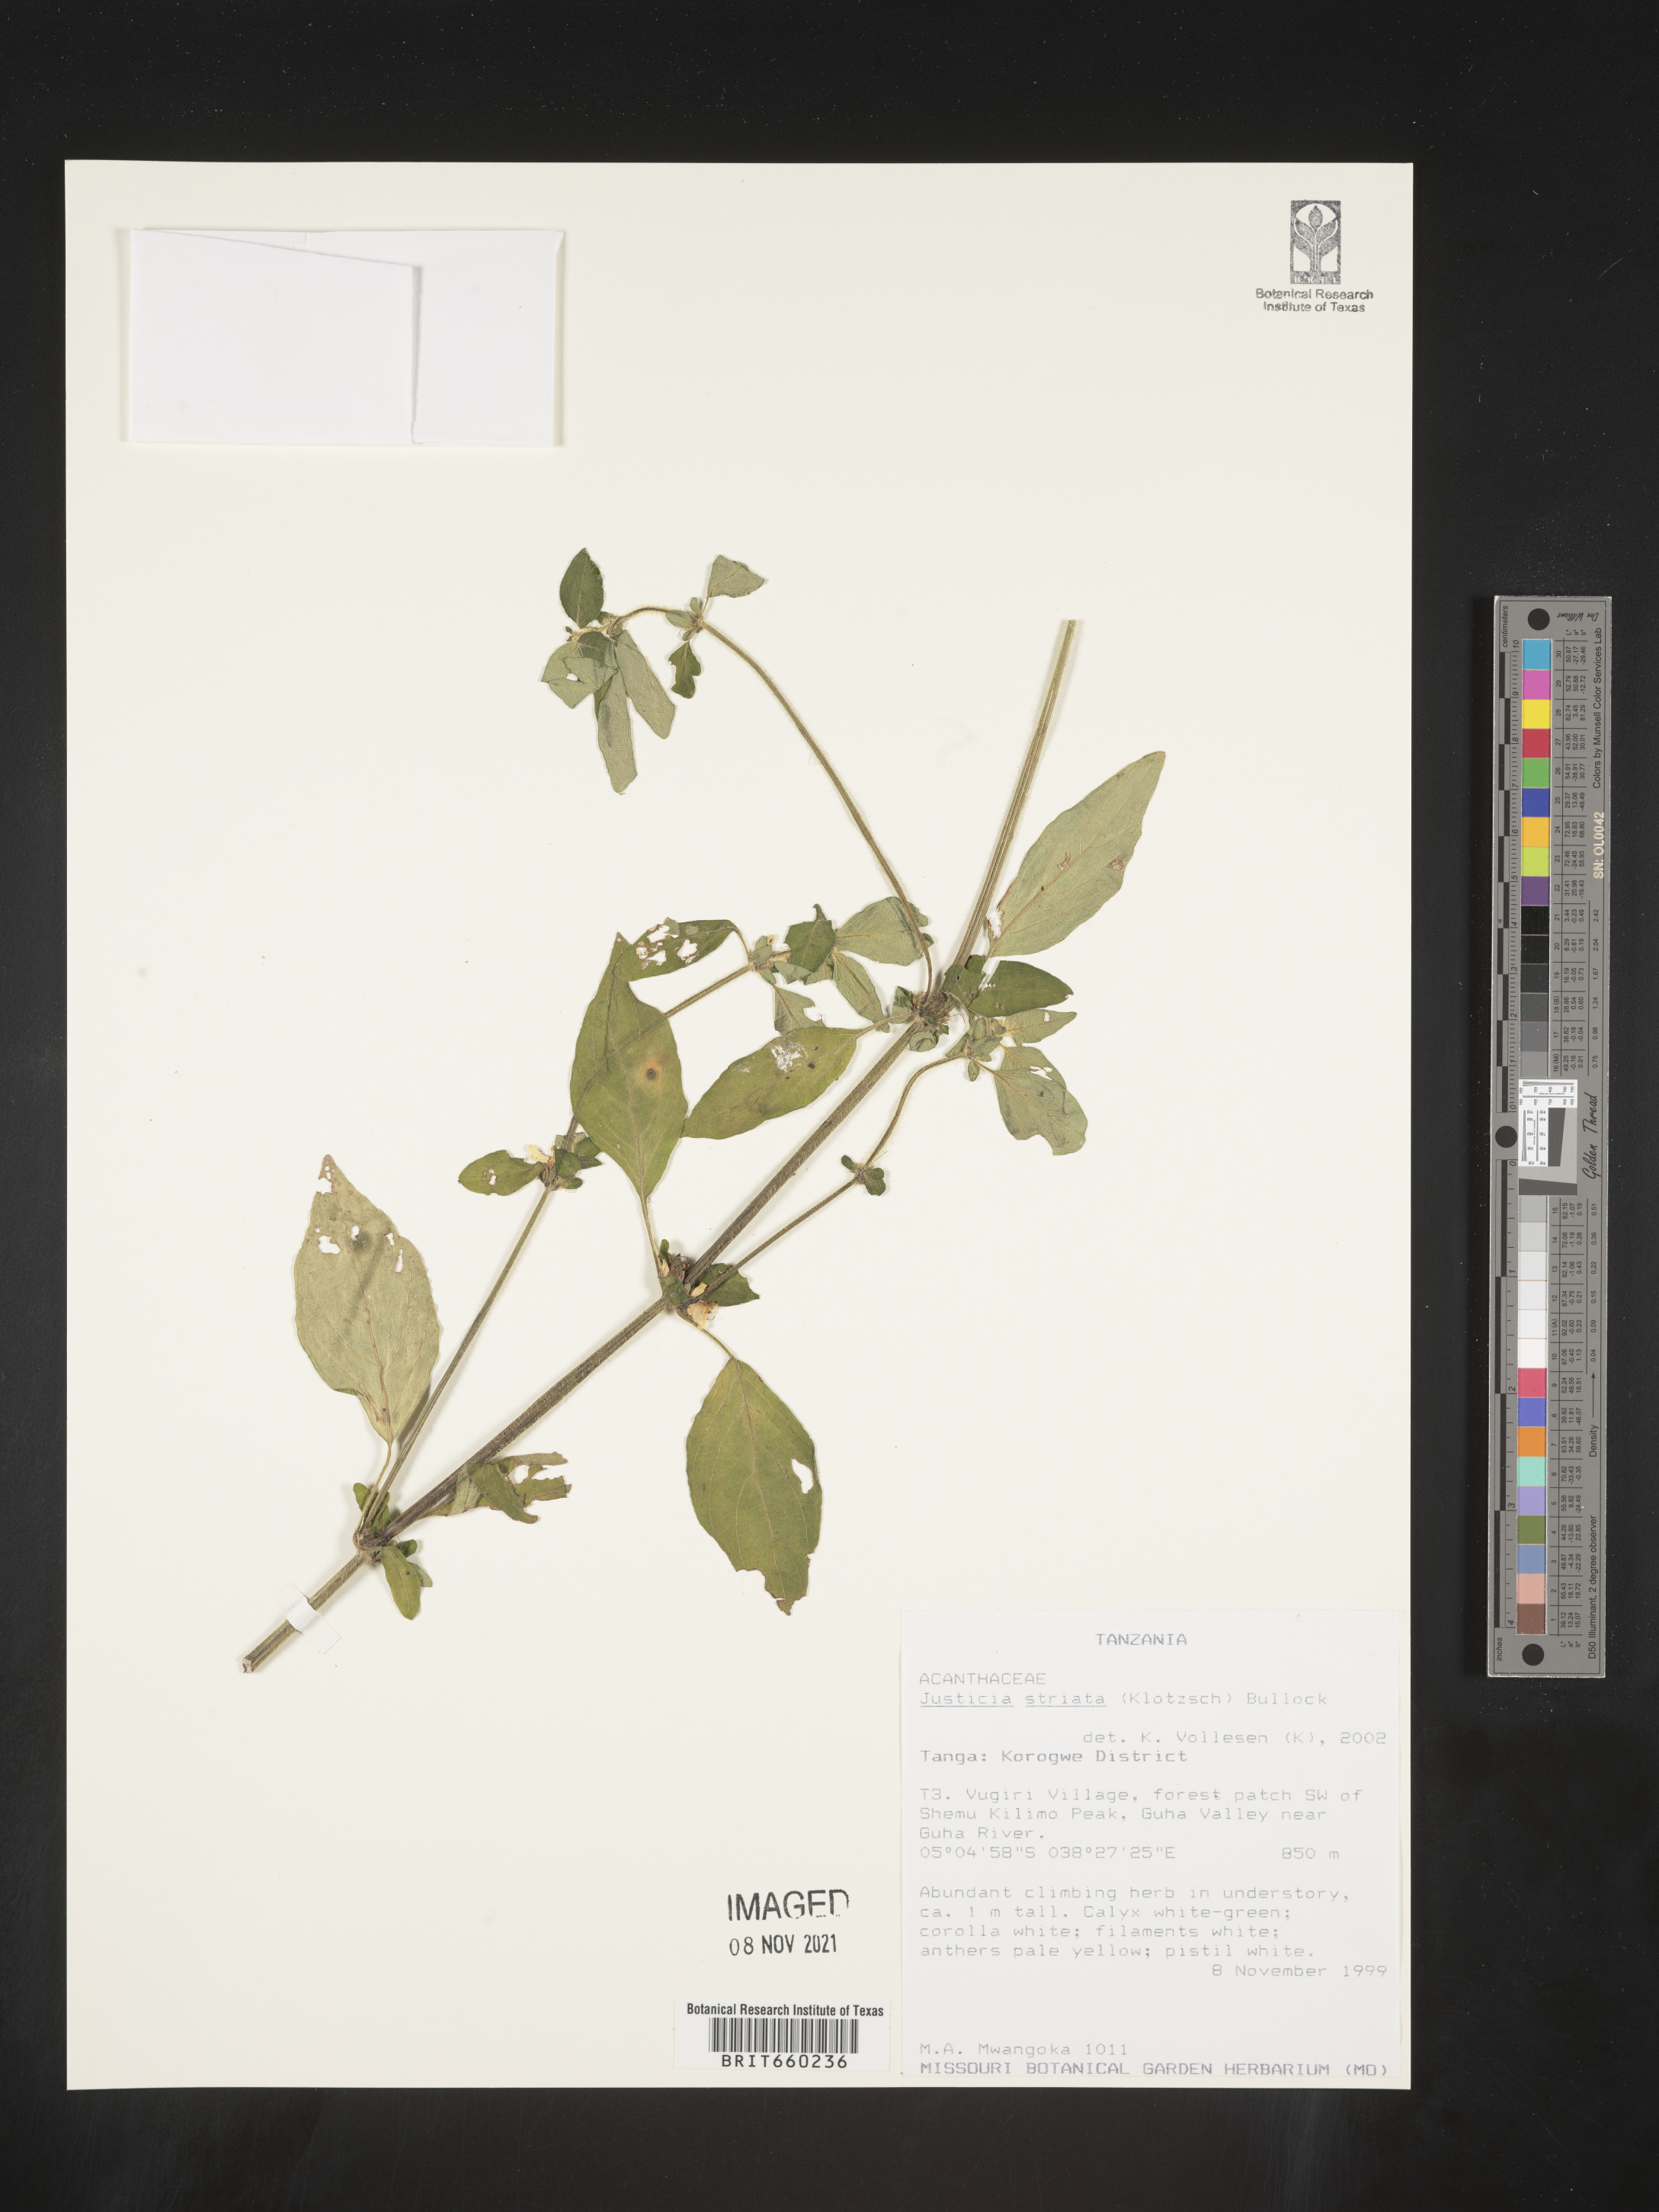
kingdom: Plantae
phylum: Tracheophyta
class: Magnoliopsida
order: Lamiales
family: Acanthaceae
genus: Justicia
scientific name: Justicia
